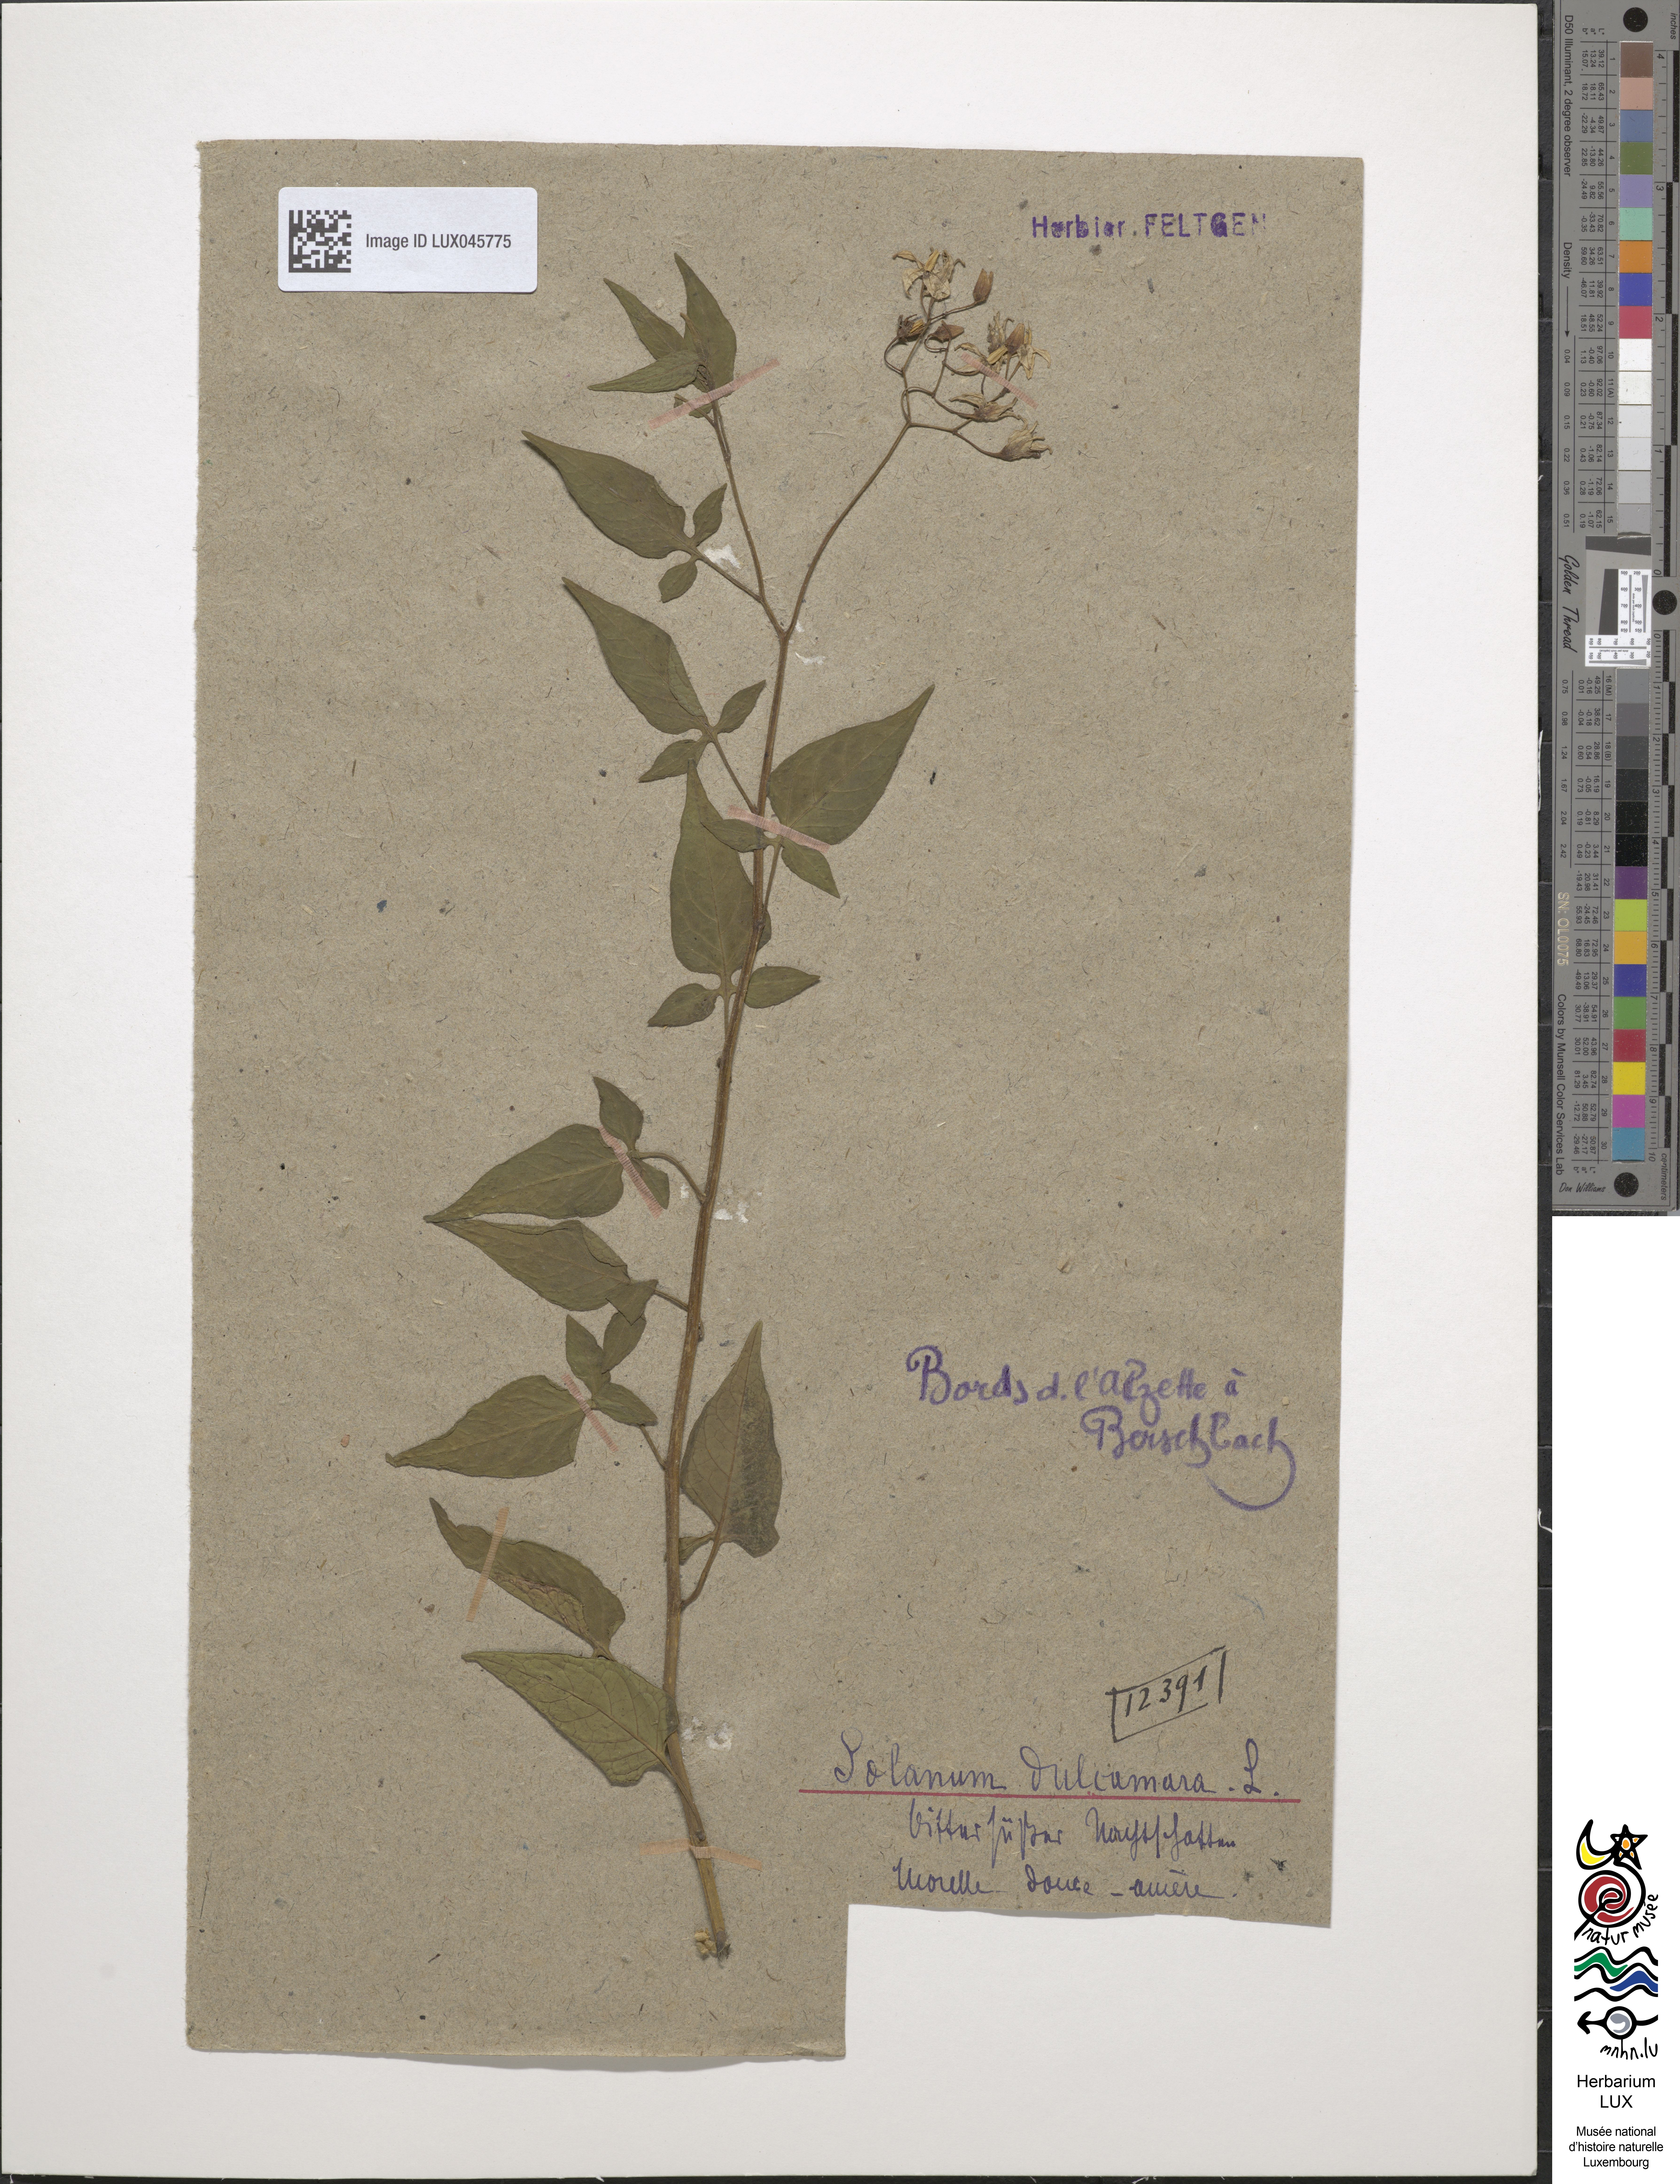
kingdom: Plantae
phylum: Tracheophyta
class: Magnoliopsida
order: Solanales
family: Solanaceae
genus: Solanum
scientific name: Solanum dulcamara
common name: Climbing nightshade
